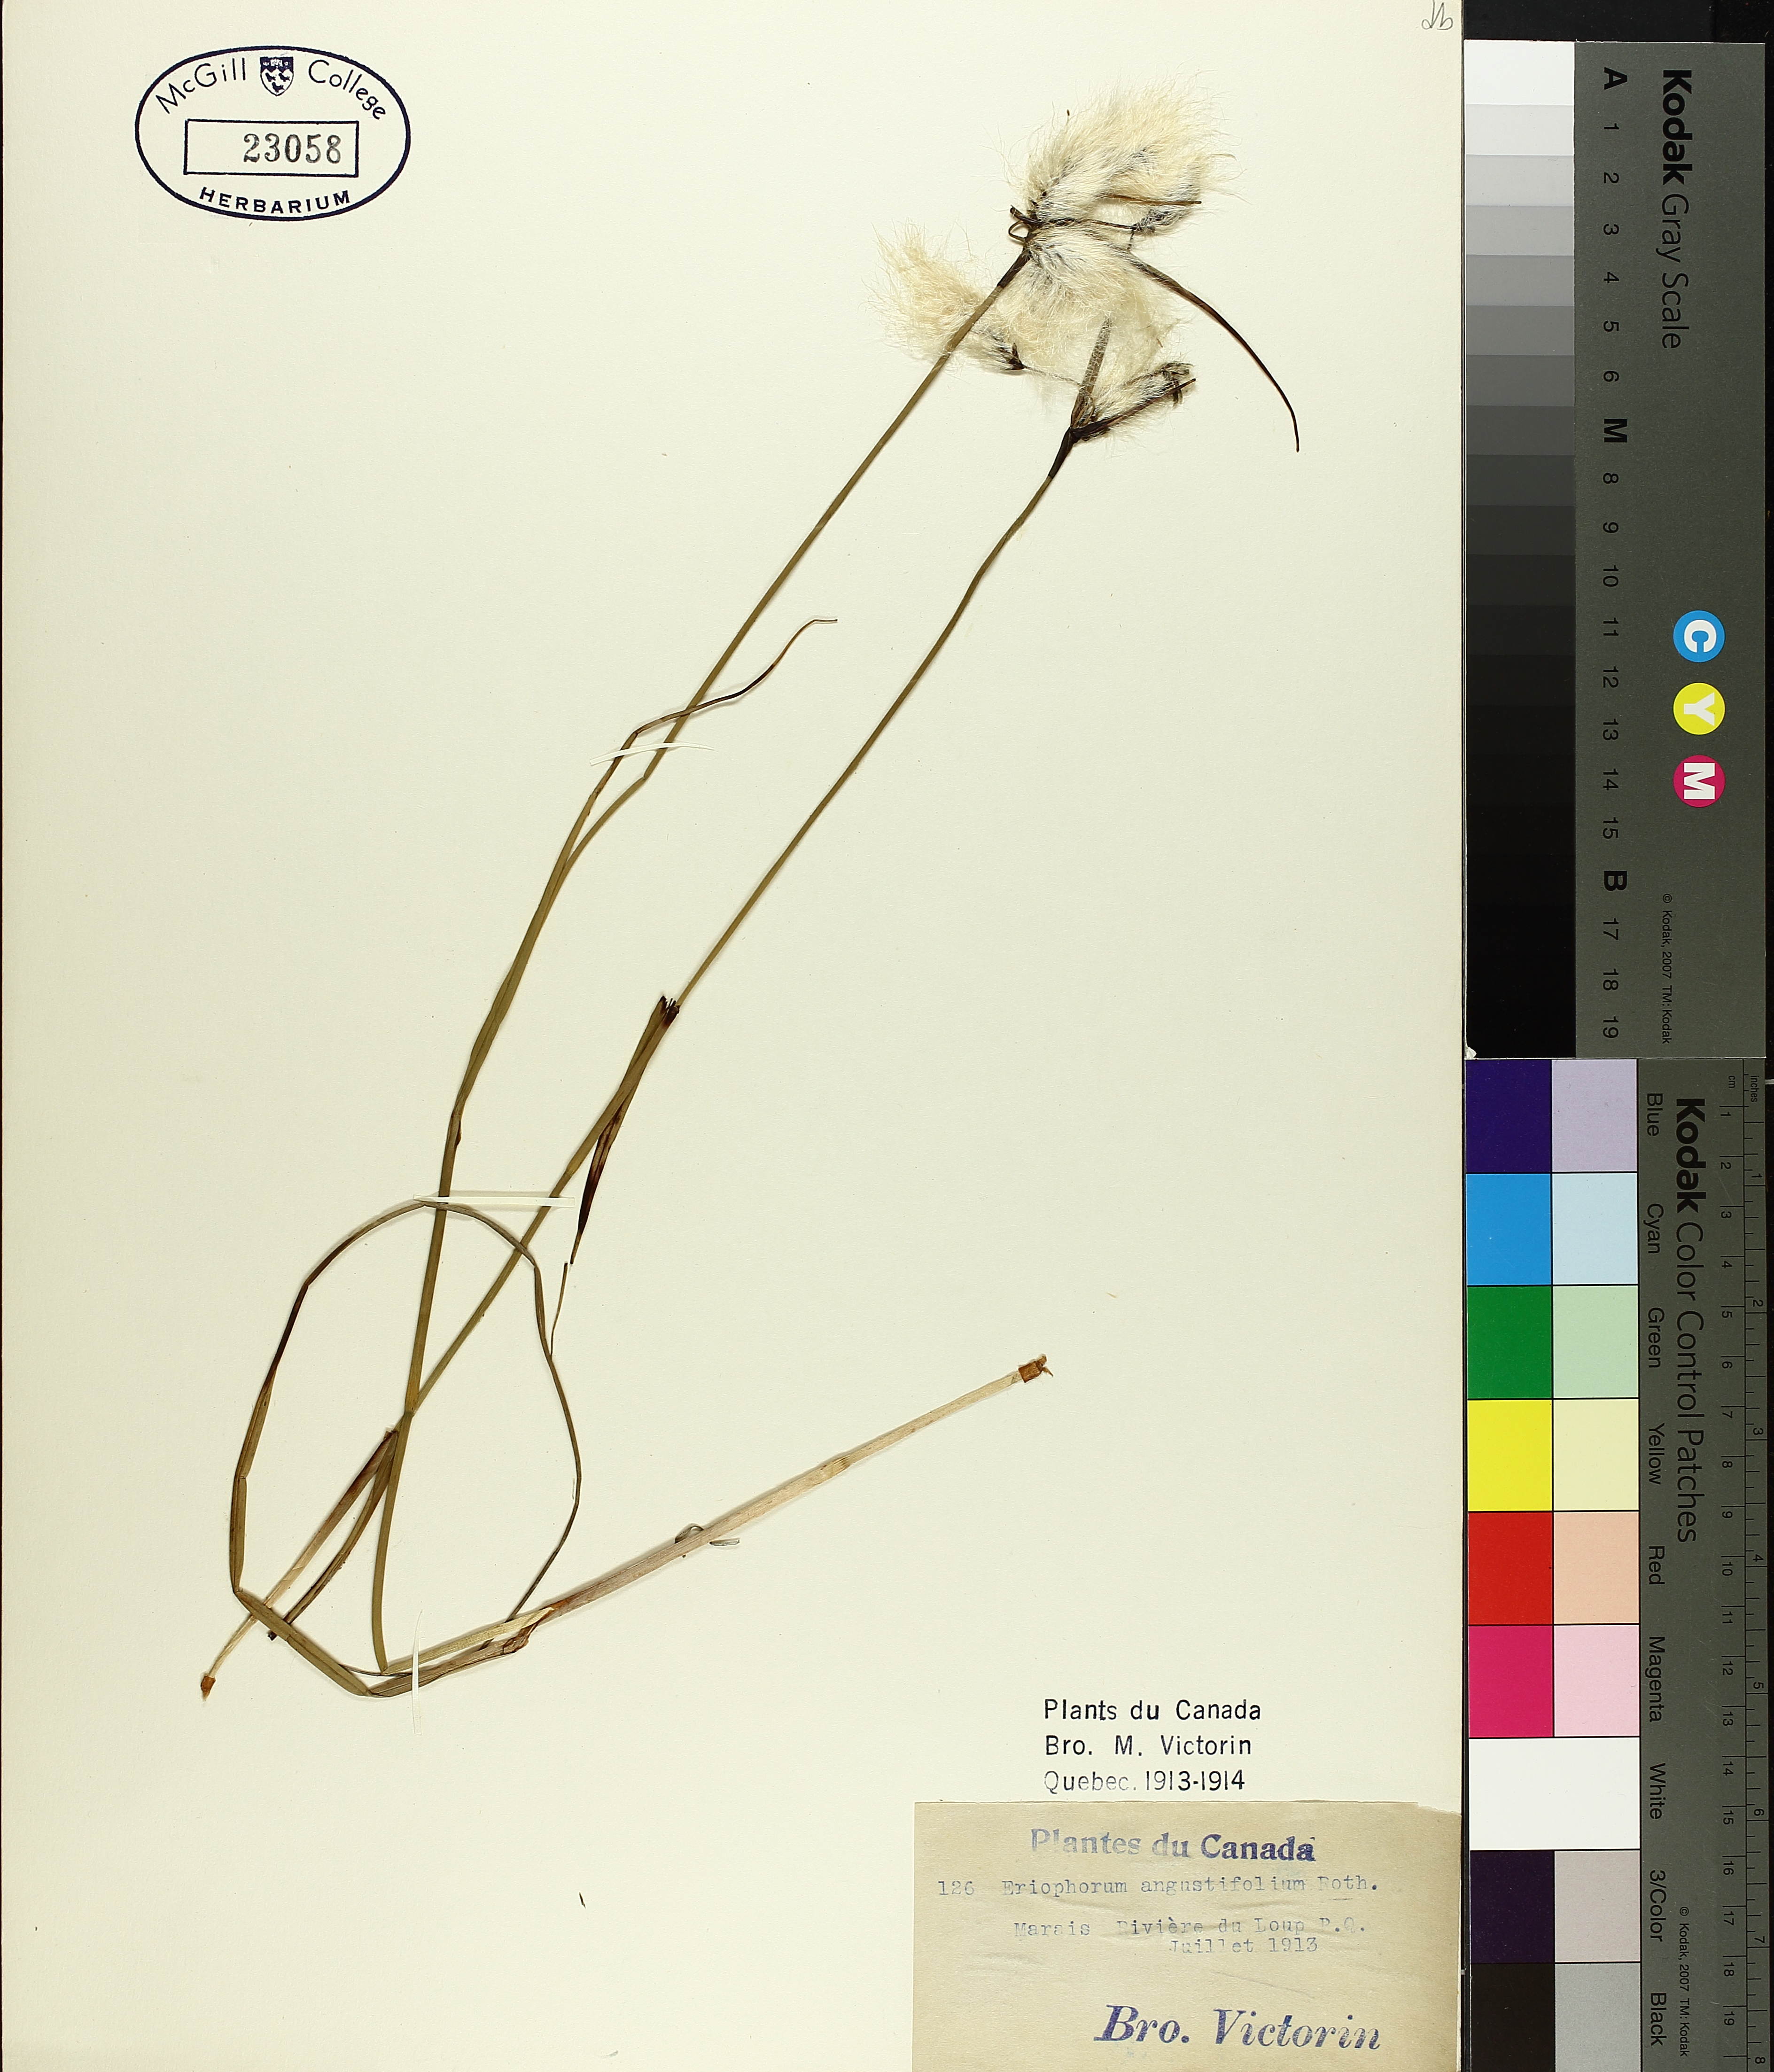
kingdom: Plantae
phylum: Tracheophyta
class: Liliopsida
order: Poales
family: Cyperaceae
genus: Eriophorum
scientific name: Eriophorum triste
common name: Tall cottongrass
